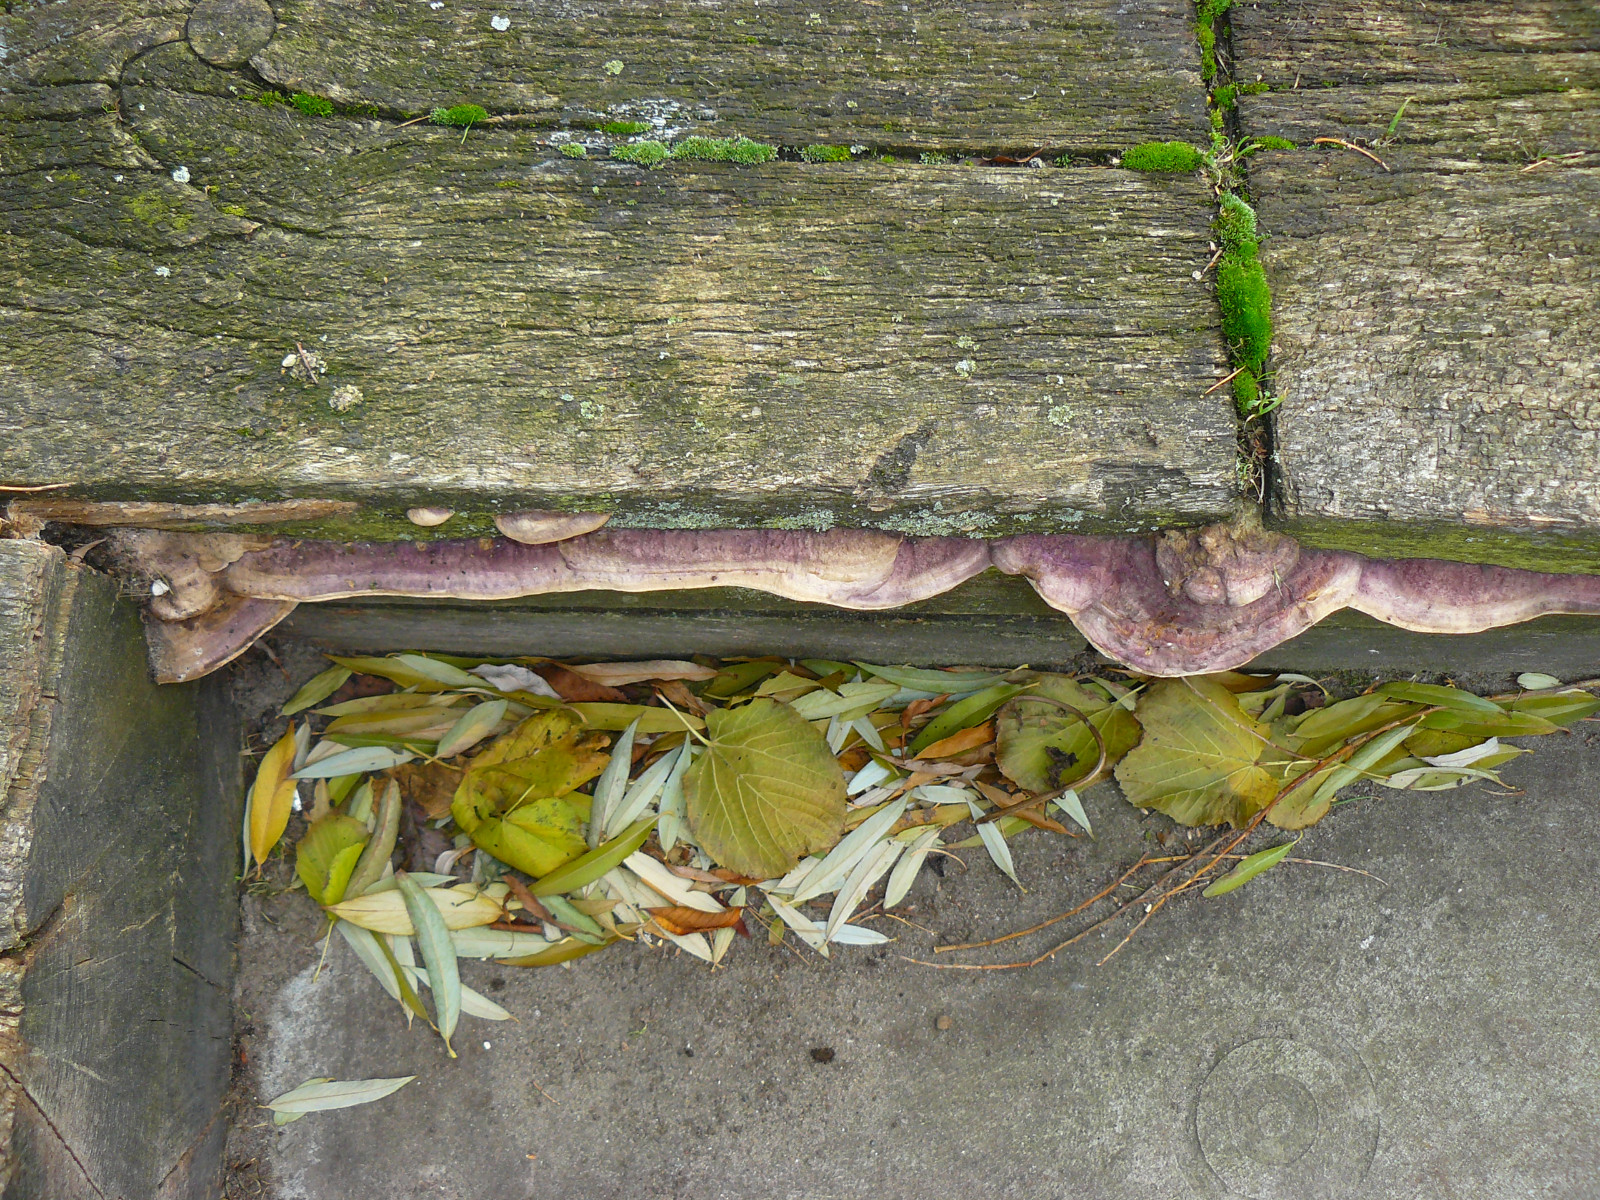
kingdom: Fungi
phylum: Basidiomycota
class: Agaricomycetes
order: Polyporales
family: Fomitopsidaceae
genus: Daedalea
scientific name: Daedalea quercina
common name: ege-labyrintsvamp
